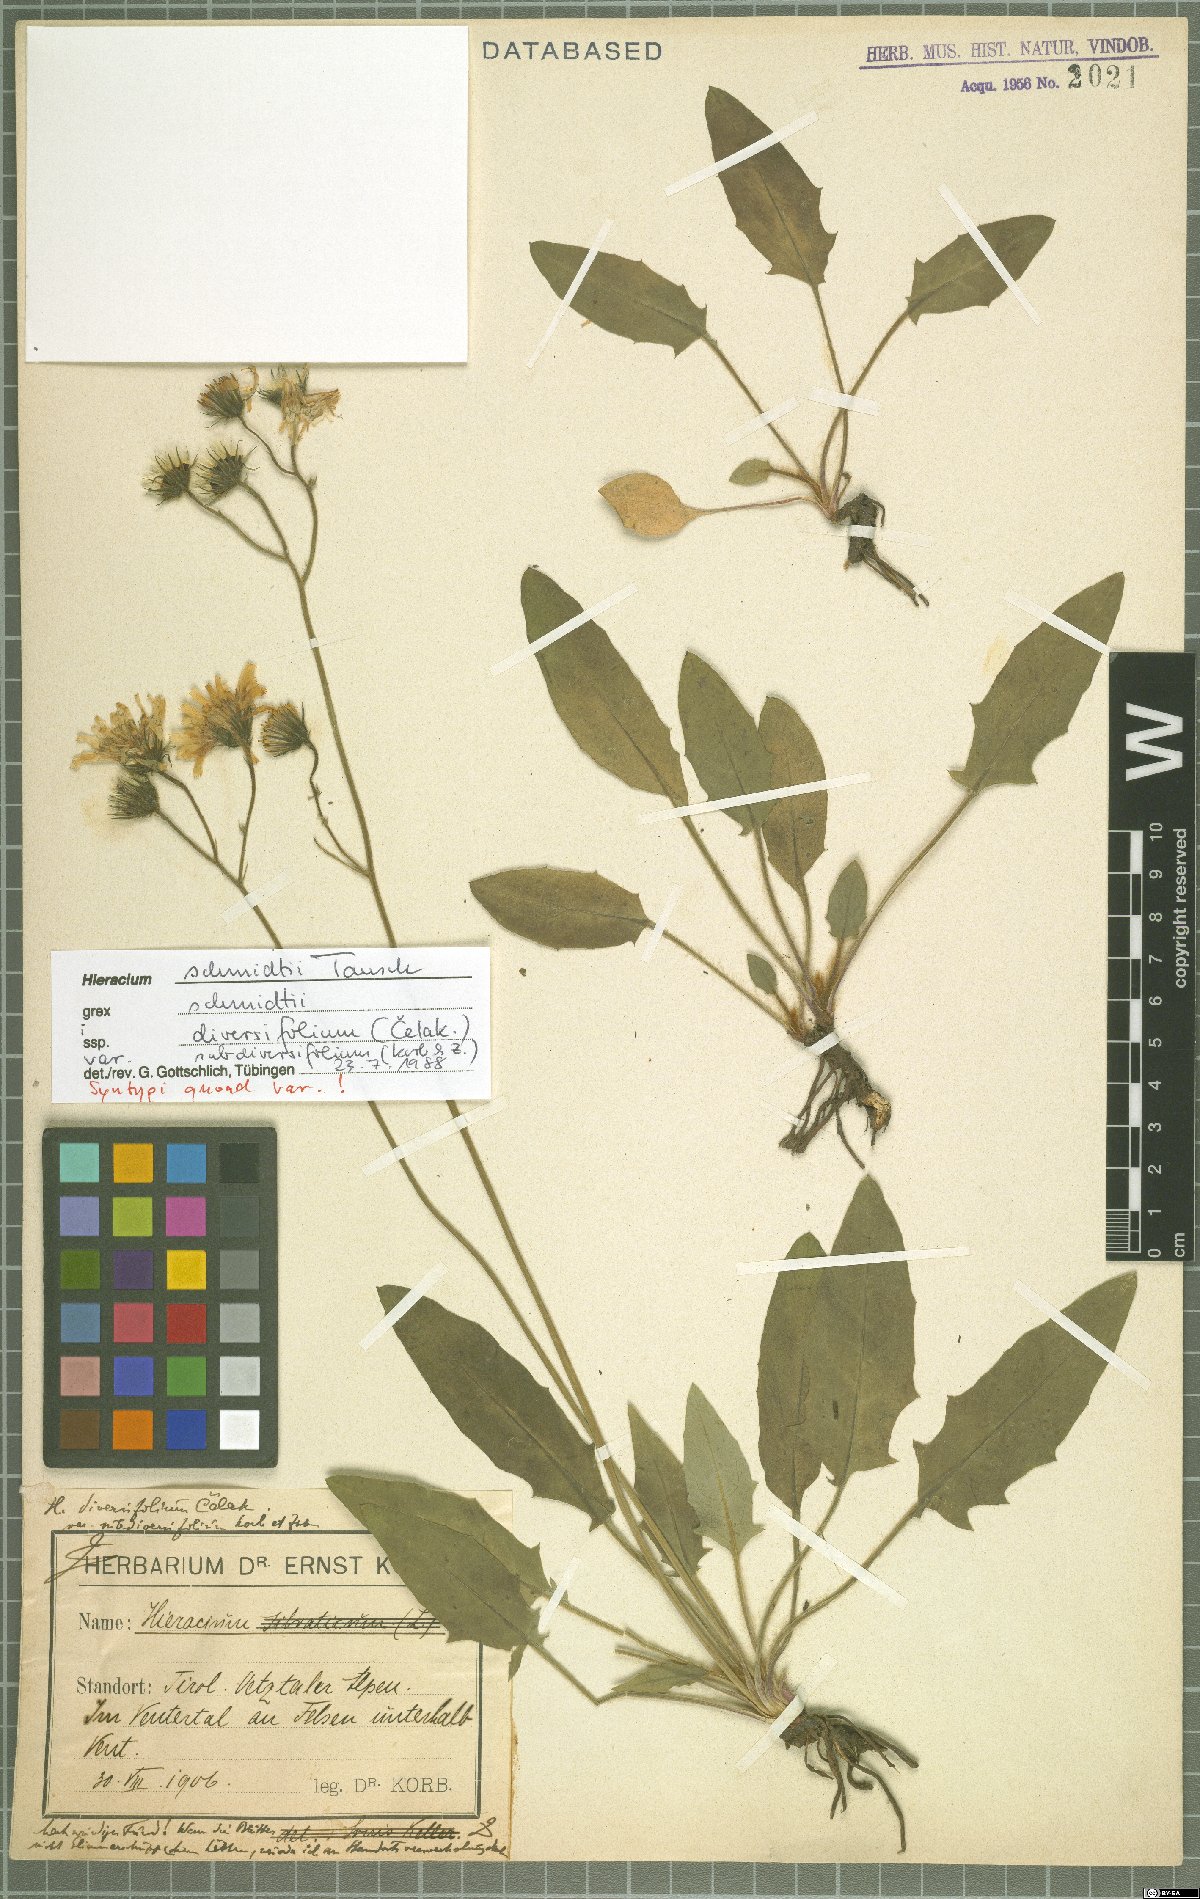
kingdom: Plantae
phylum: Tracheophyta
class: Magnoliopsida
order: Asterales
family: Asteraceae
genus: Hieracium
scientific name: Hieracium schmidtii
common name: Schmidt's hawkweed
